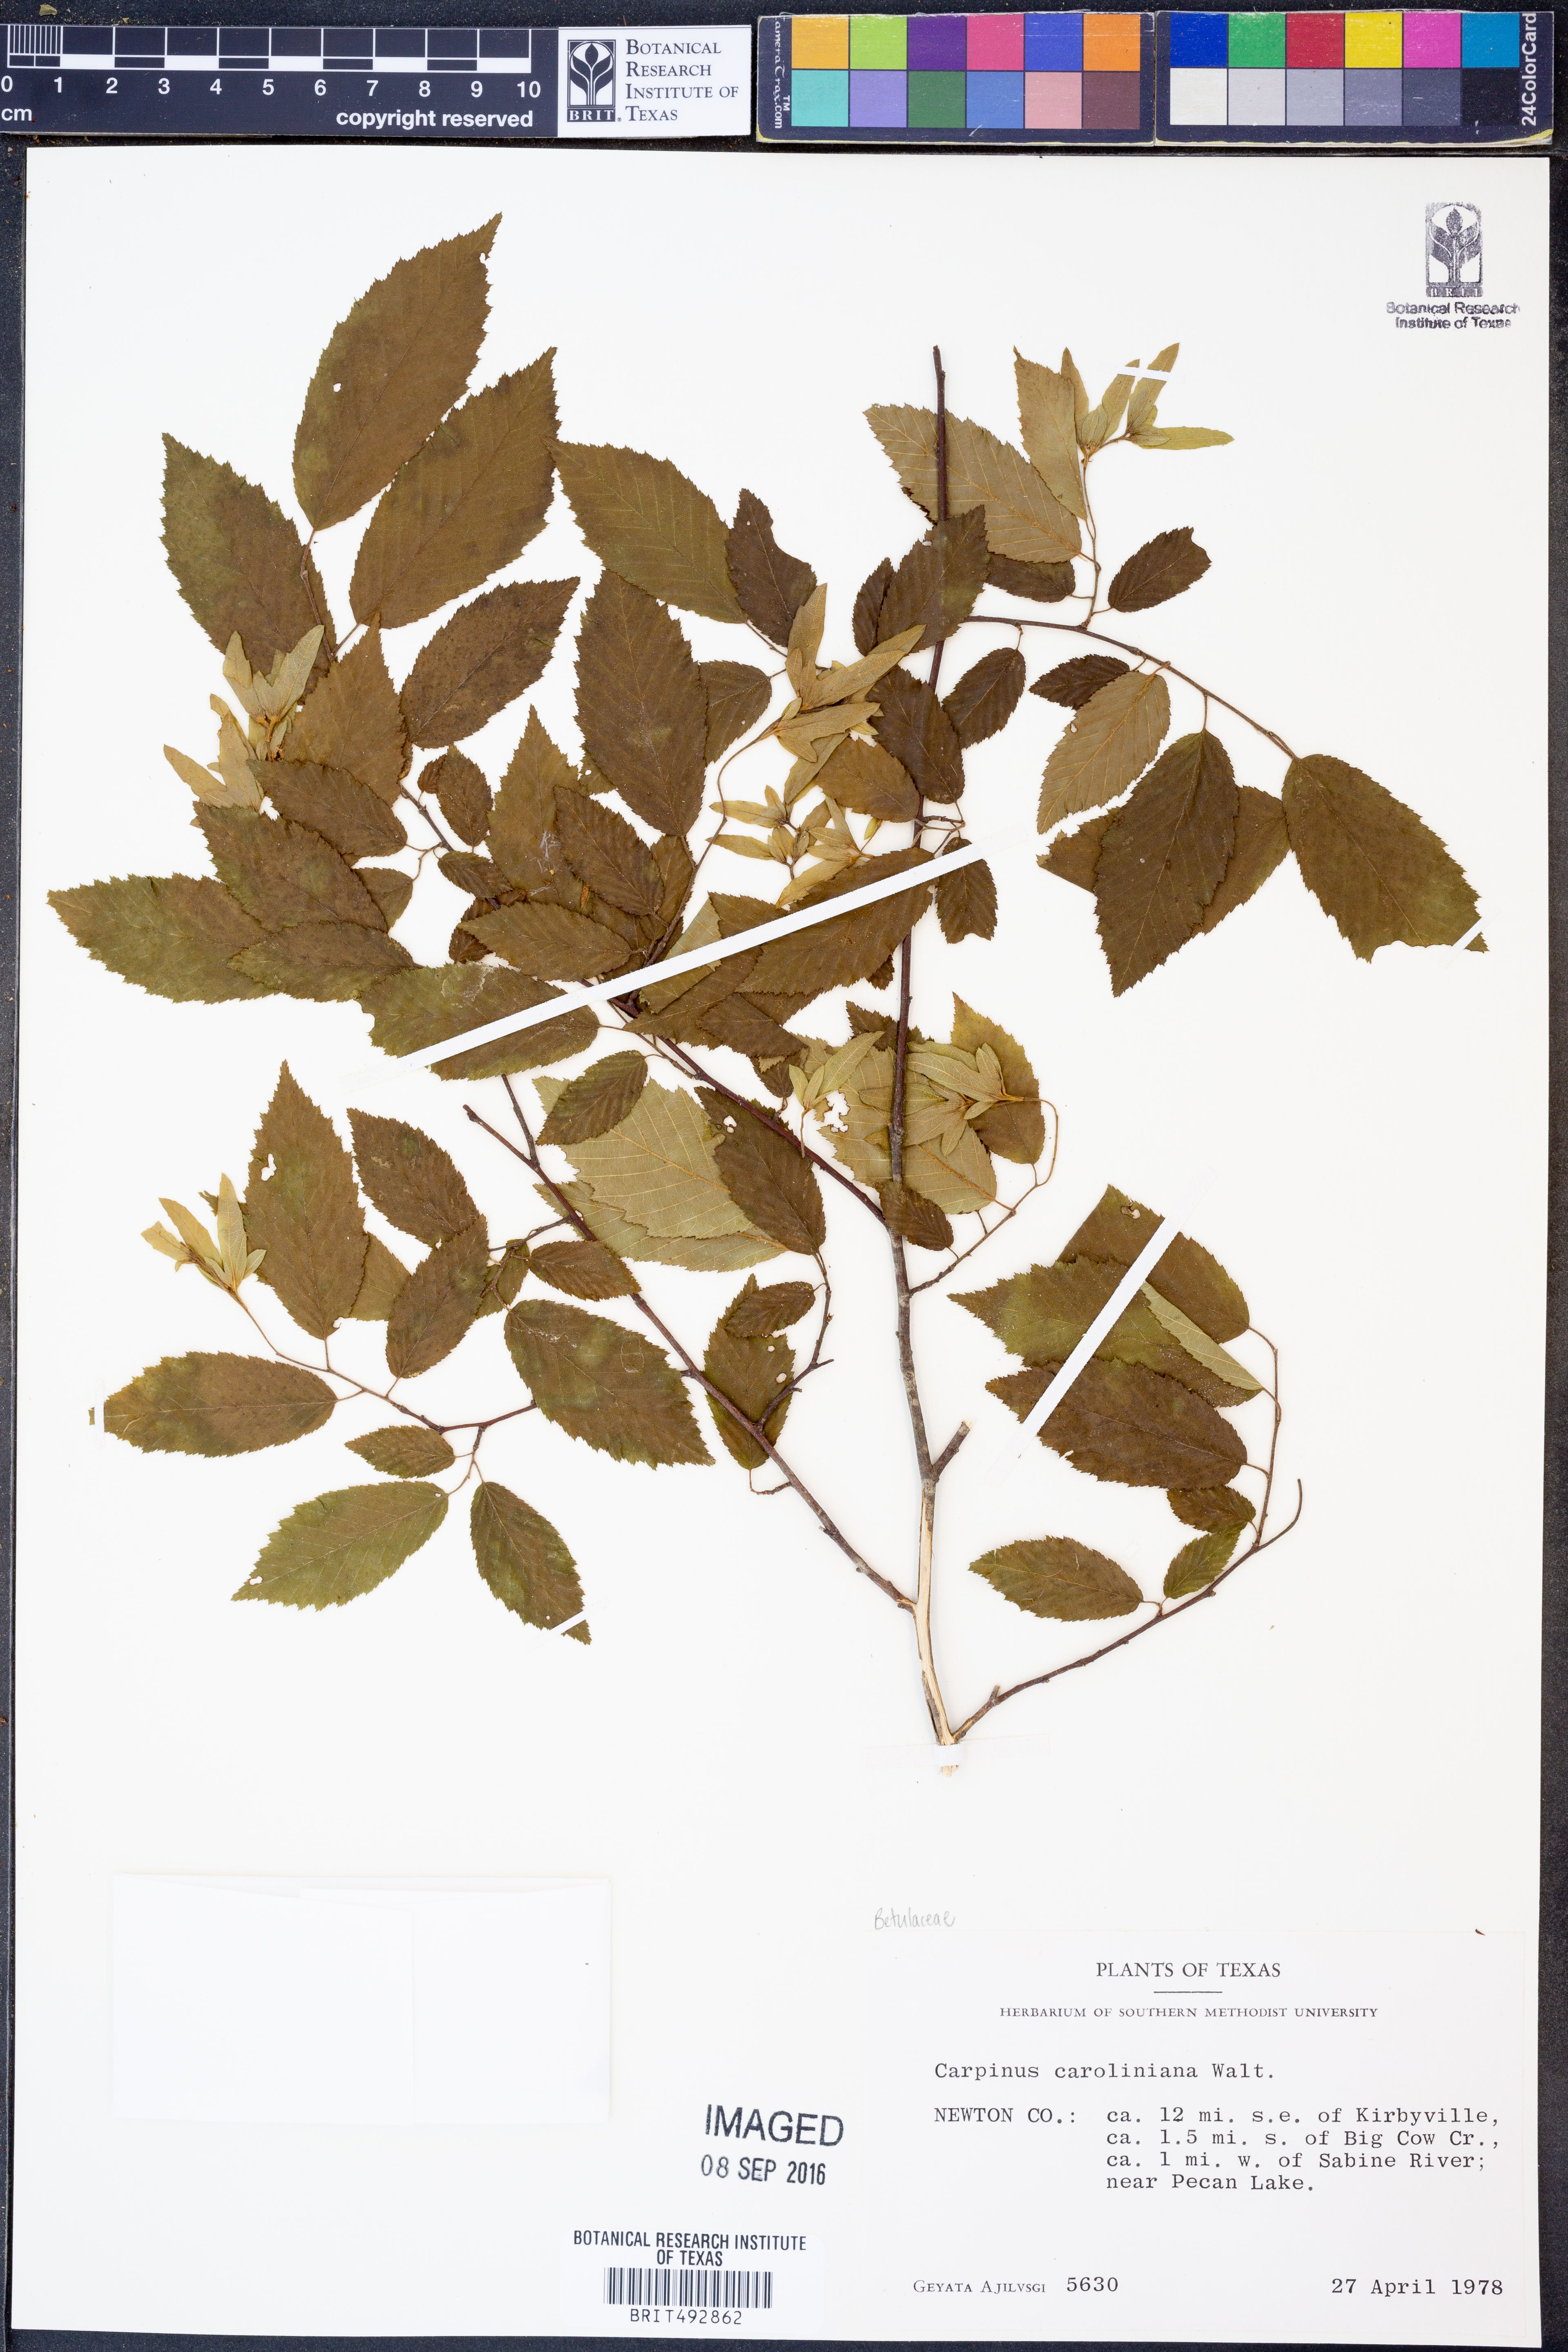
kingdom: Plantae
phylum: Tracheophyta
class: Magnoliopsida
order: Fagales
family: Betulaceae
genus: Carpinus
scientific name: Carpinus caroliniana
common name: American hornbeam
